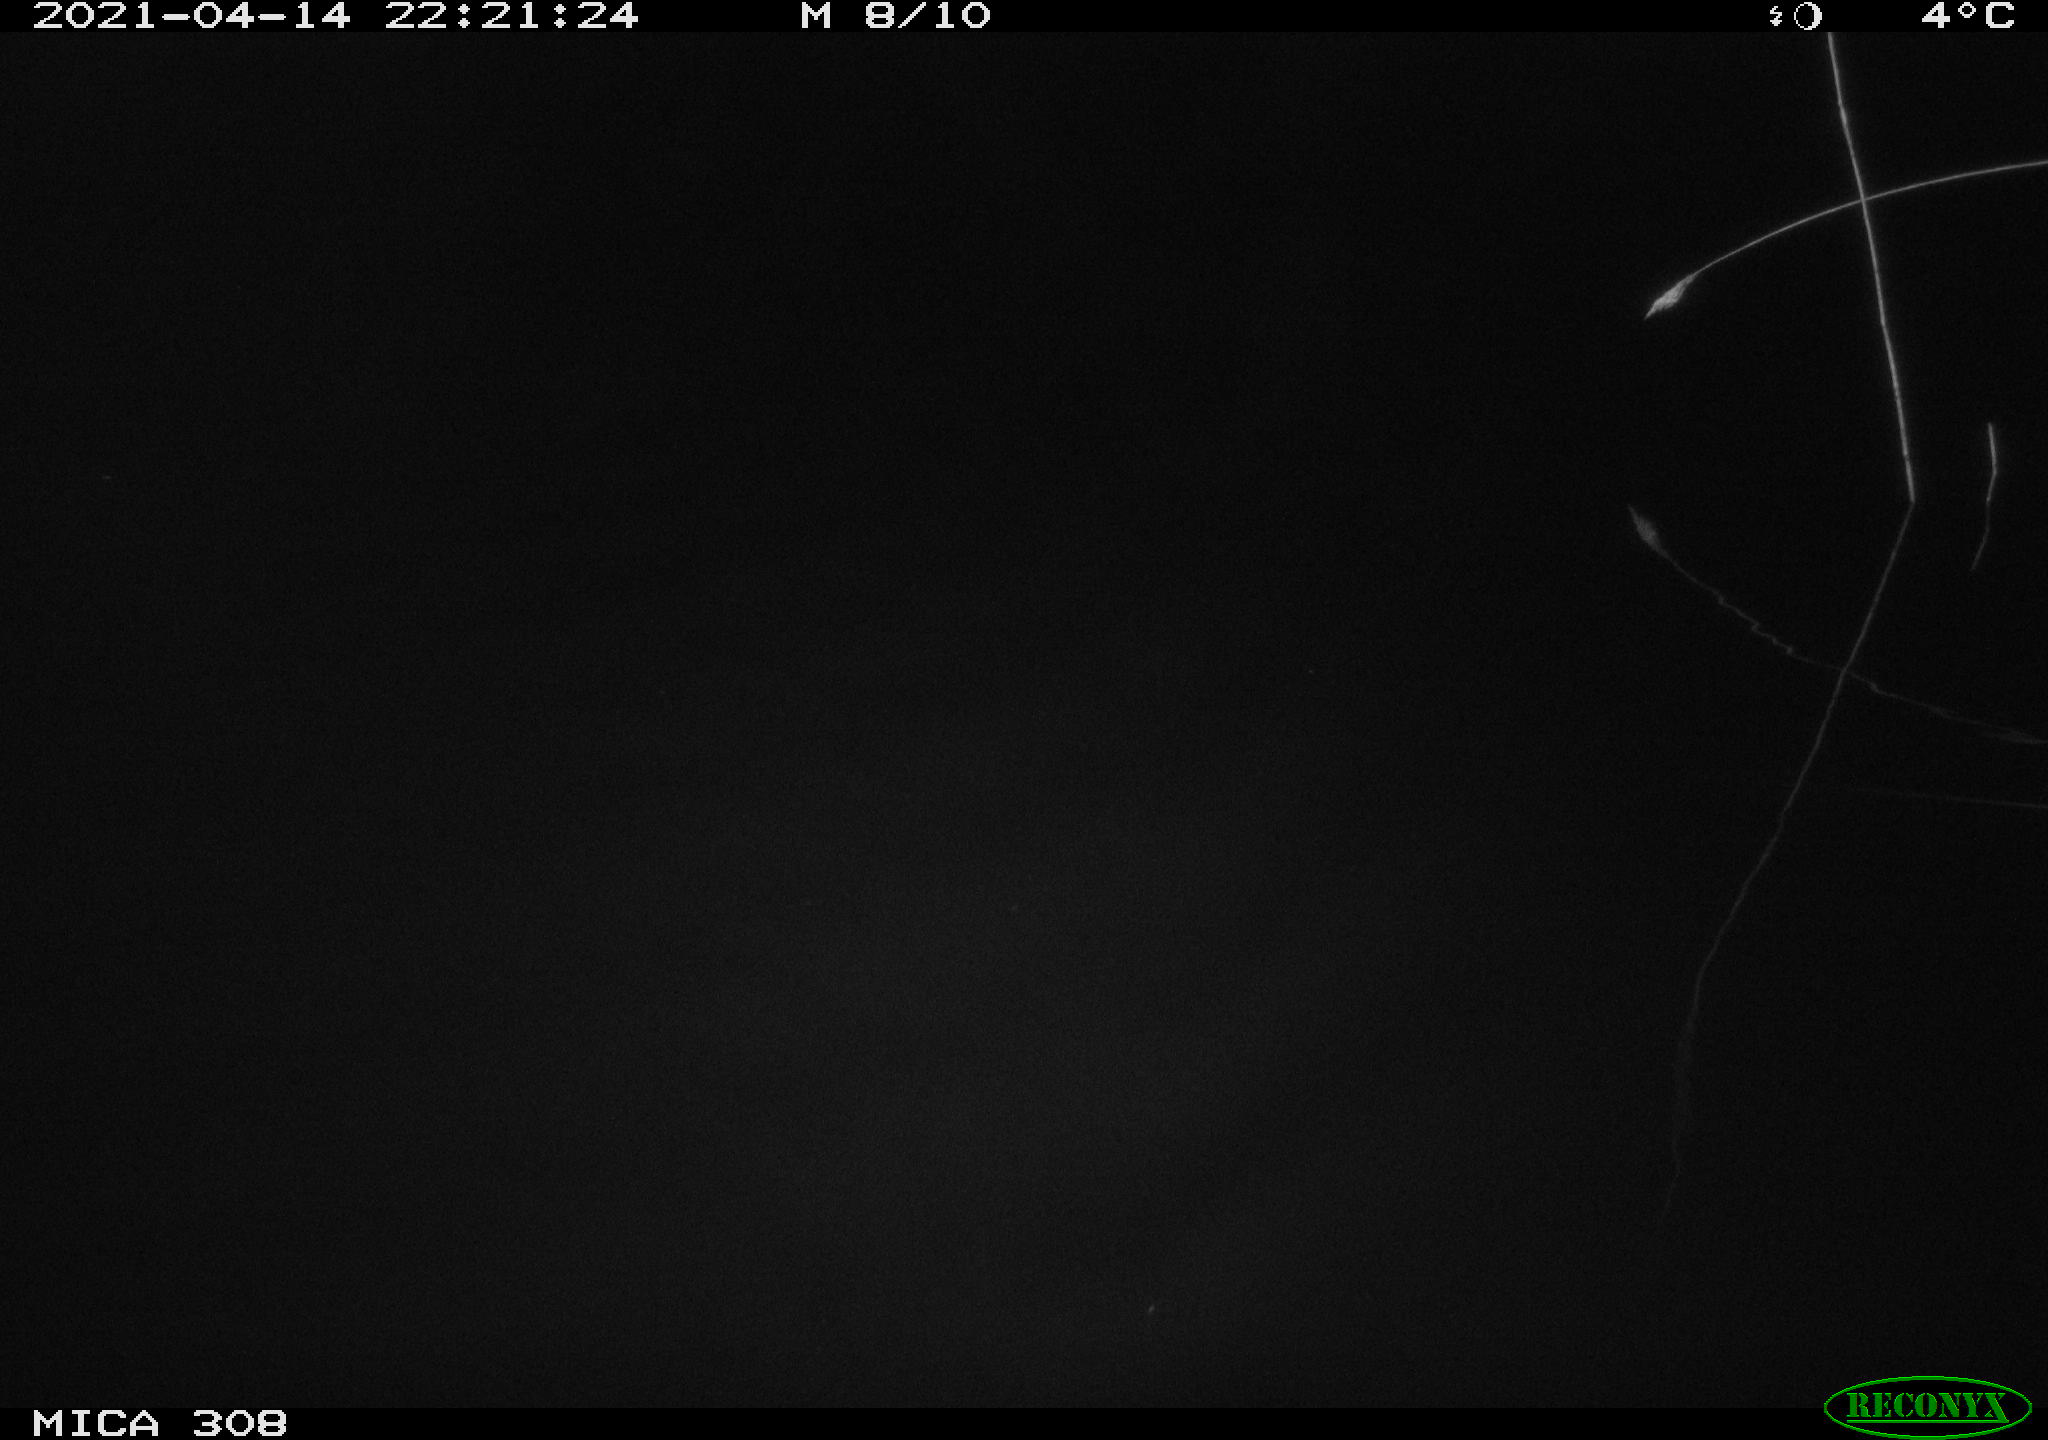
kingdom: Animalia
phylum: Chordata
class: Mammalia
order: Rodentia
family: Cricetidae
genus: Ondatra
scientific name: Ondatra zibethicus
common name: Muskrat
